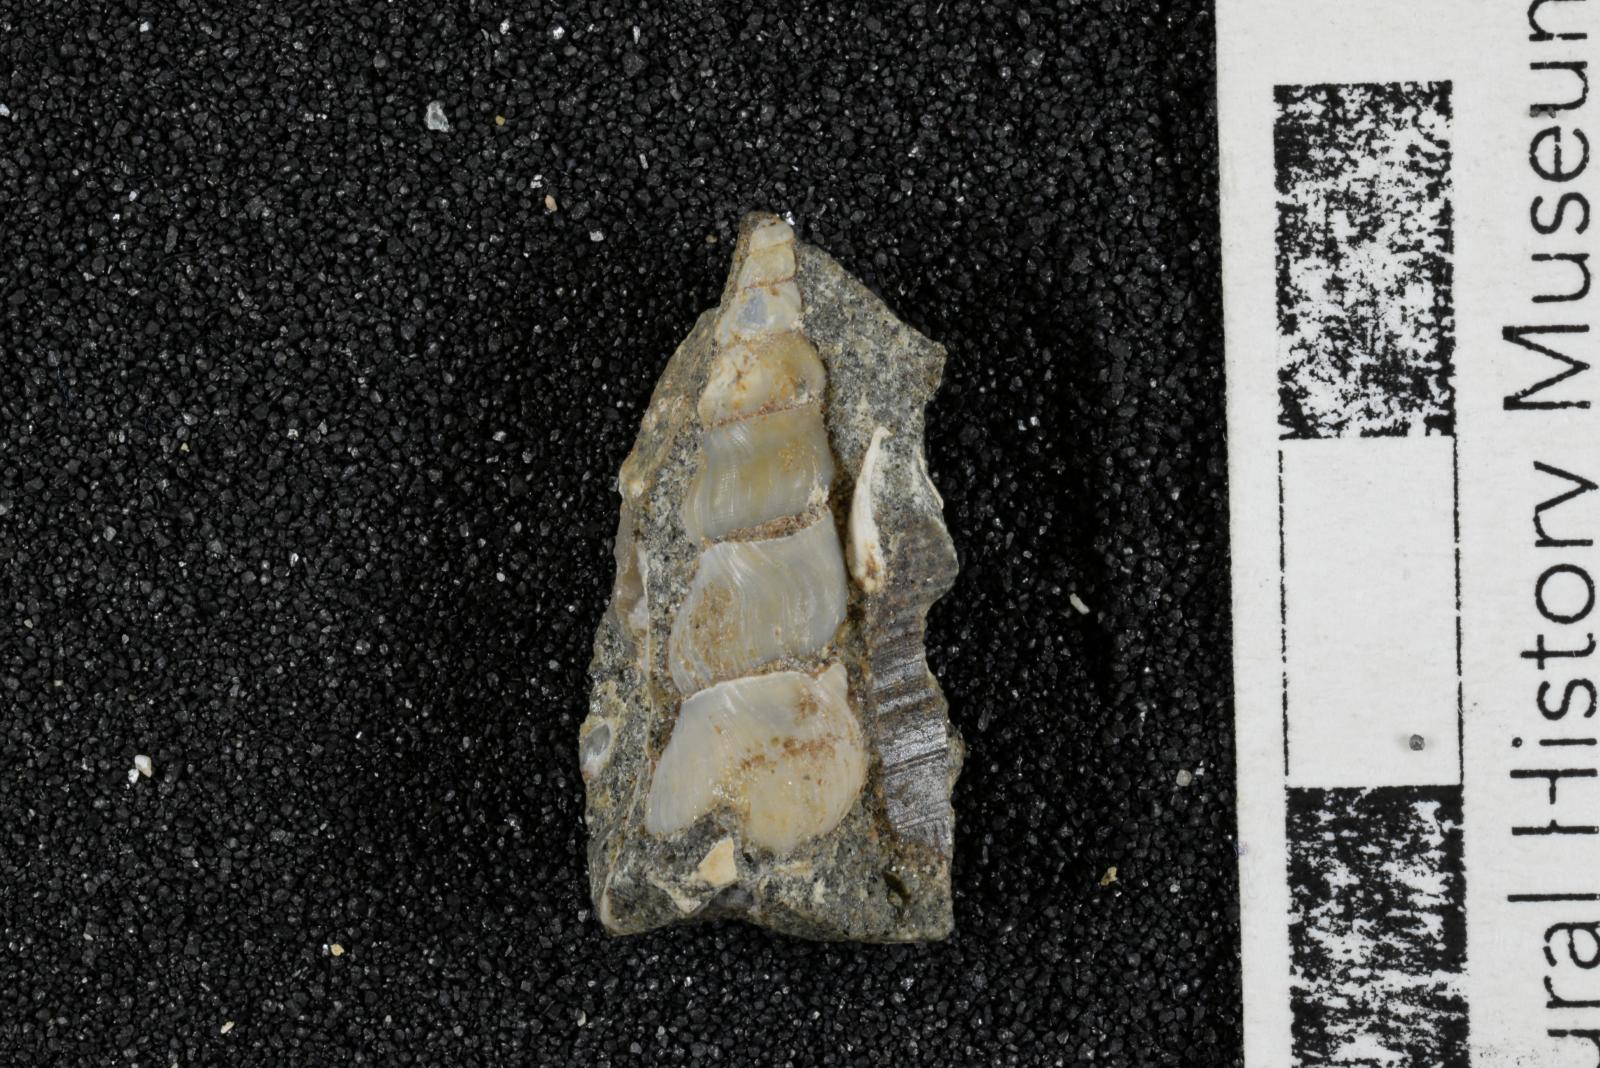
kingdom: Animalia
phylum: Mollusca
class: Gastropoda
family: Potamididae
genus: Potamides
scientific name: Potamides tenuis
